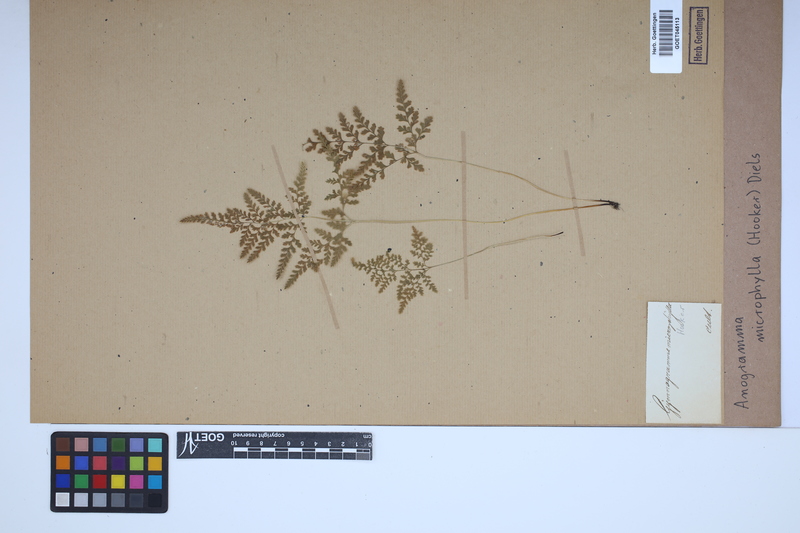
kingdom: Plantae
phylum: Tracheophyta
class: Polypodiopsida
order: Polypodiales
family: Pteridaceae
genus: Cerosora
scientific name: Cerosora microphylla
